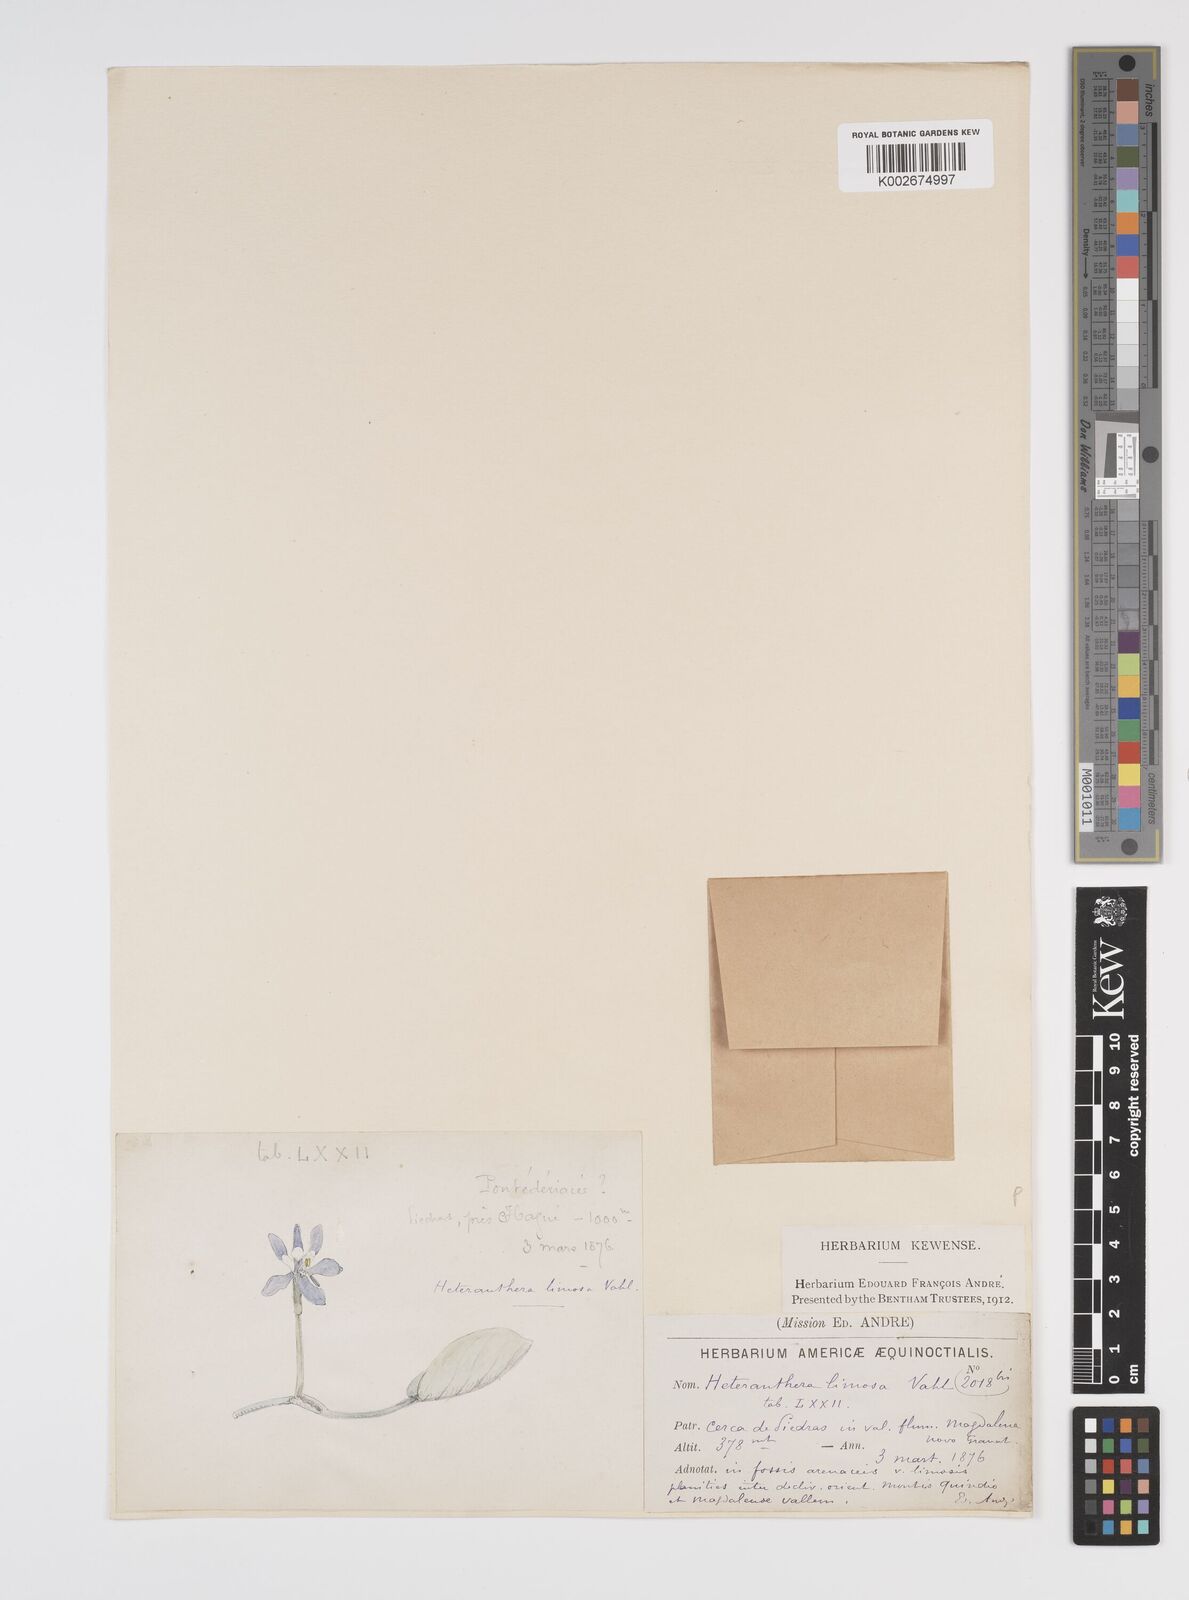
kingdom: Plantae
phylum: Tracheophyta
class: Liliopsida
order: Commelinales
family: Pontederiaceae
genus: Heteranthera
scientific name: Heteranthera limosa
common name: Blue mud-plantain
